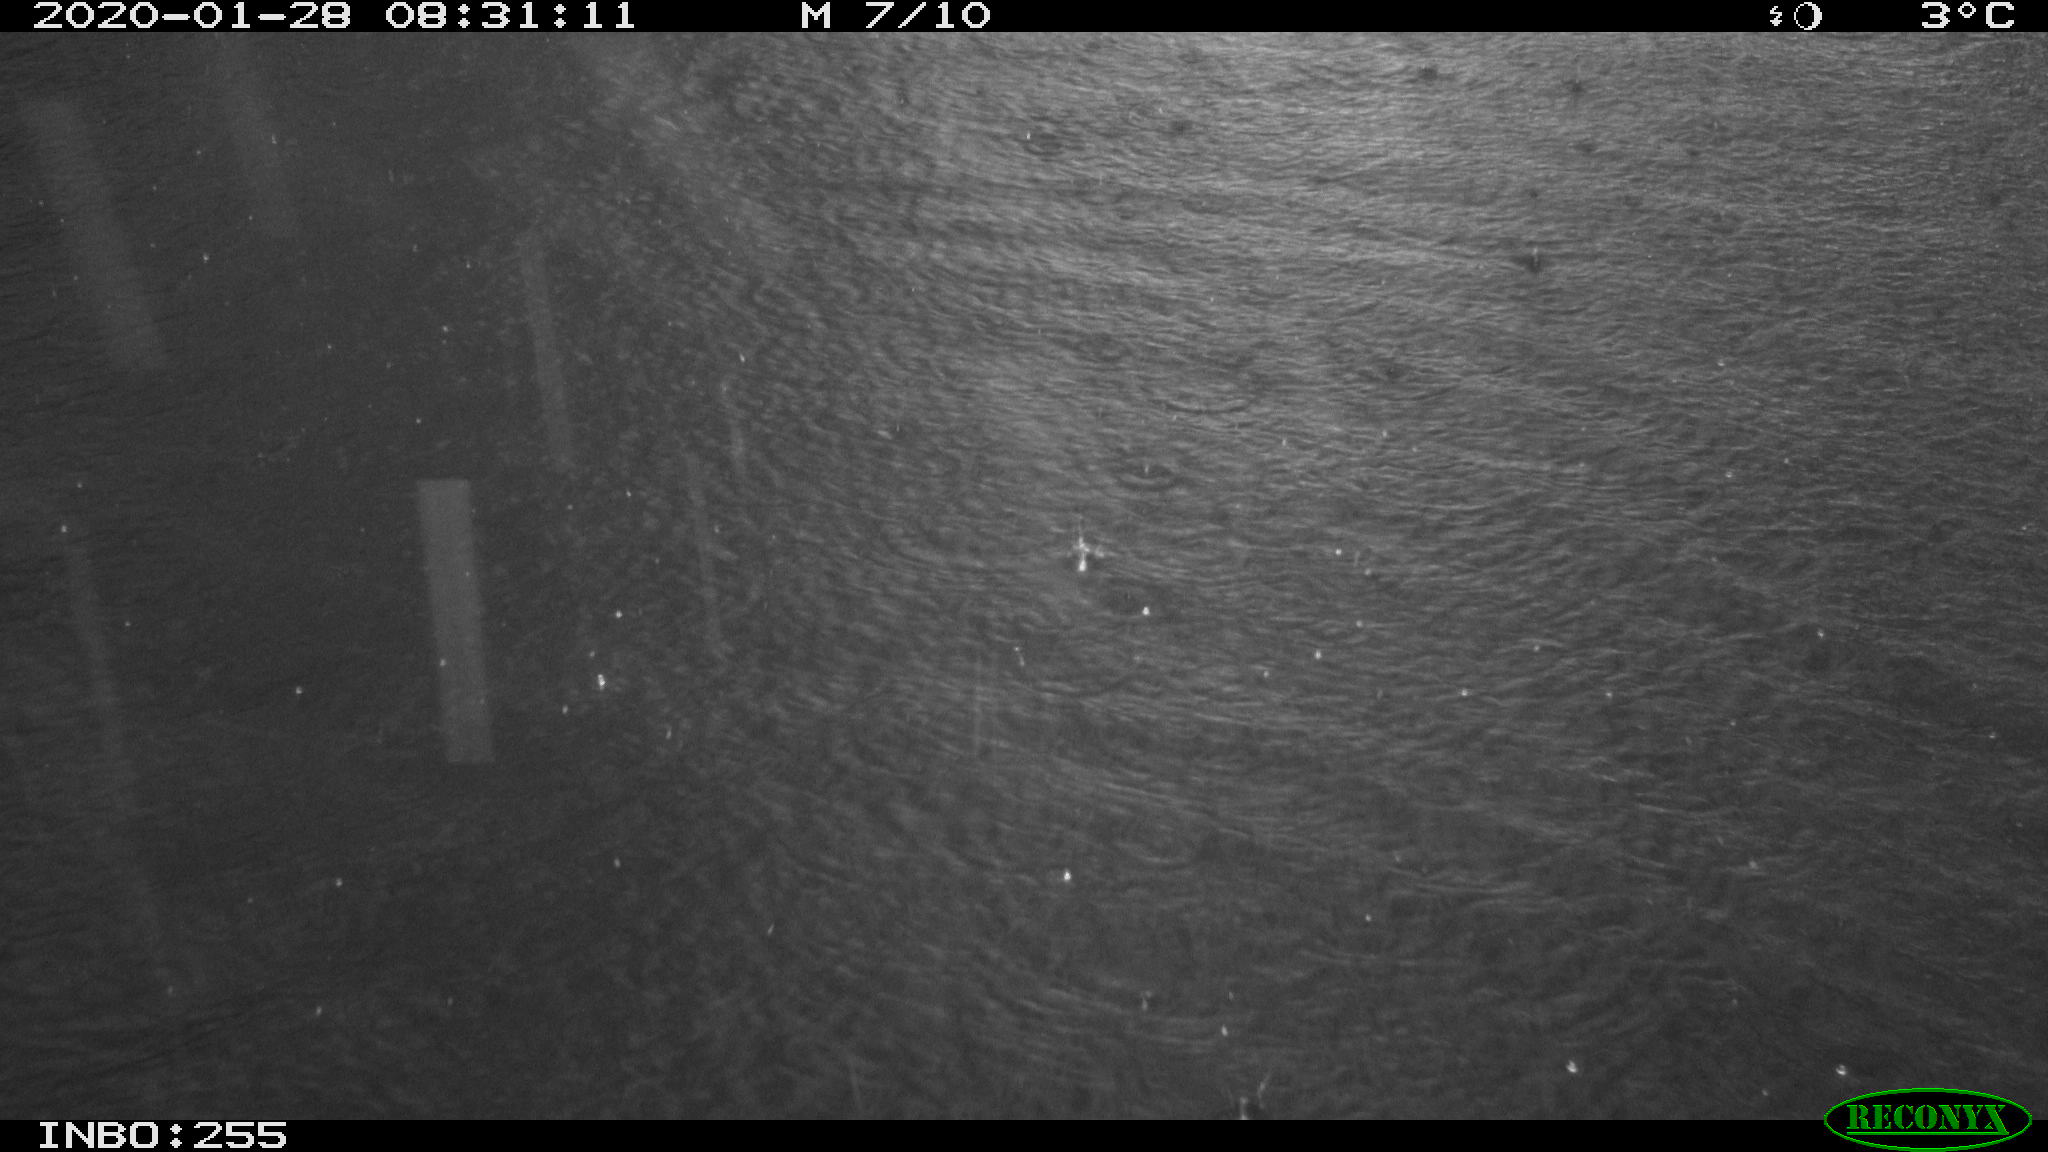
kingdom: Animalia
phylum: Chordata
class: Aves
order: Anseriformes
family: Anatidae
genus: Anas
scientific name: Anas platyrhynchos
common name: Mallard
